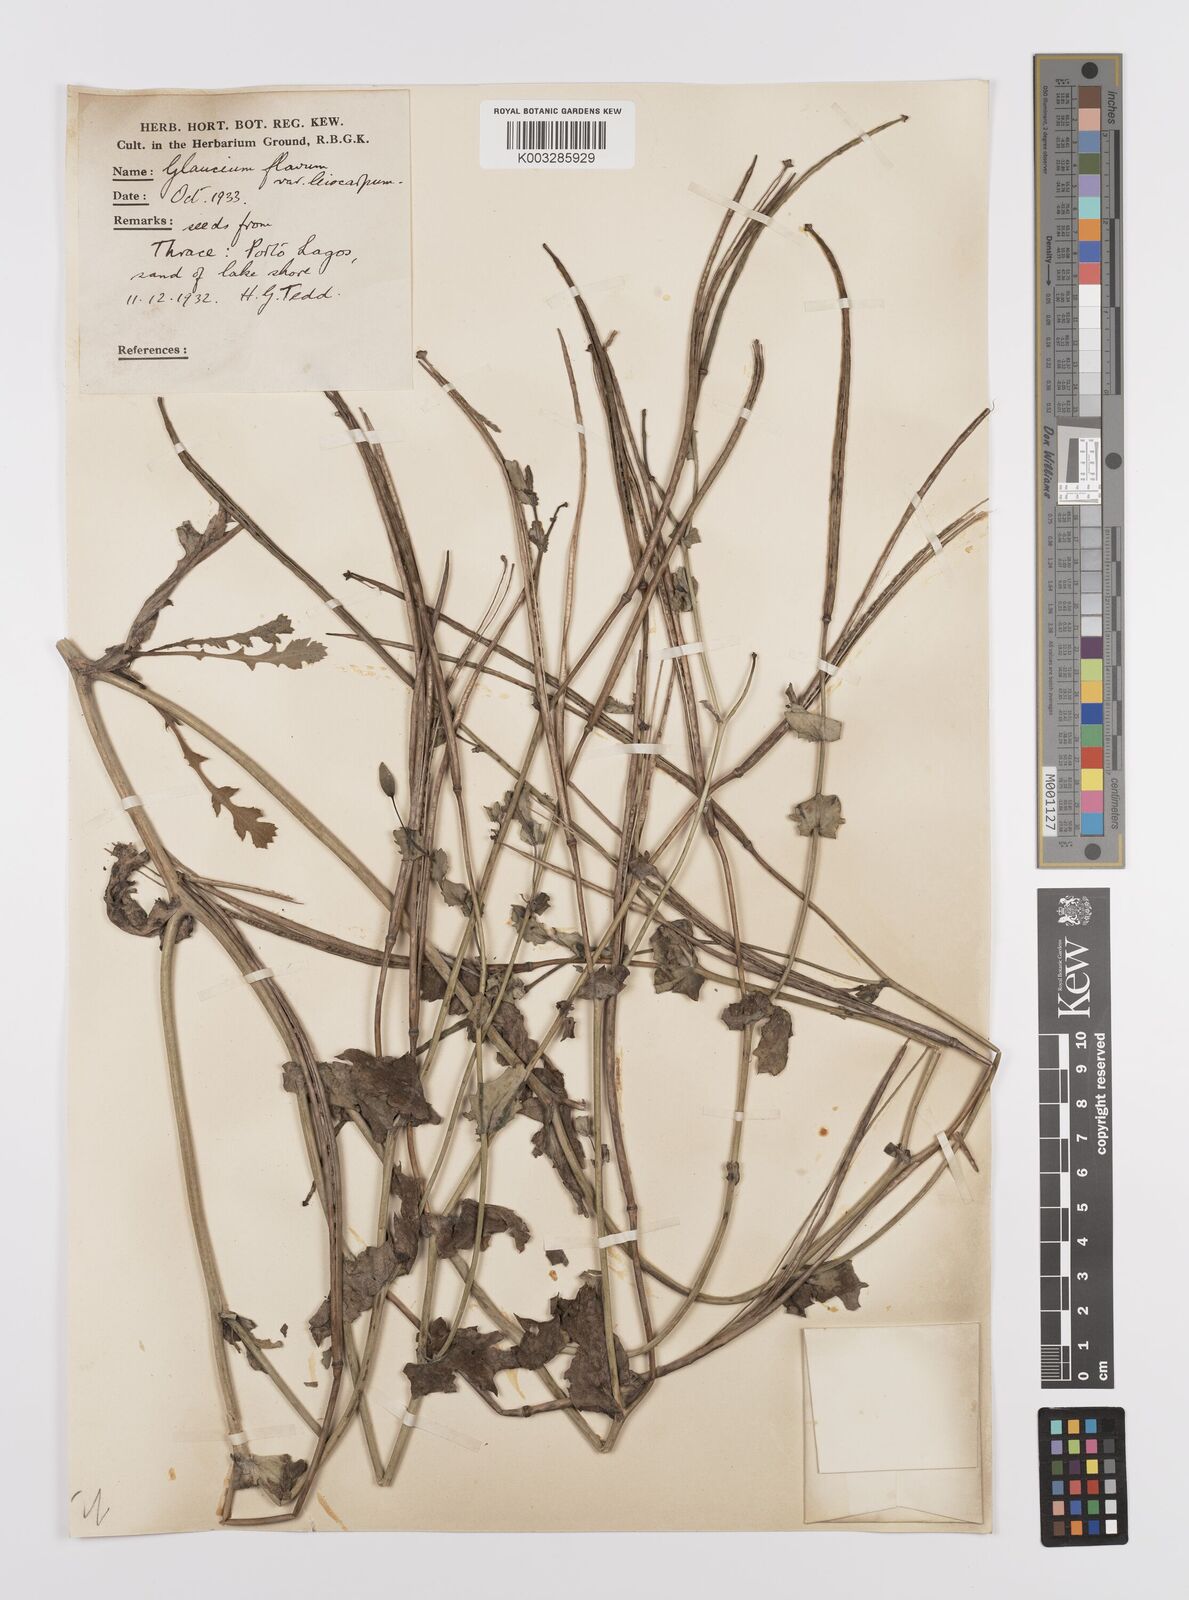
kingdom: Plantae
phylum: Tracheophyta
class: Magnoliopsida
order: Ranunculales
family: Papaveraceae
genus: Glaucium
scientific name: Glaucium flavum
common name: Yellow horned-poppy
